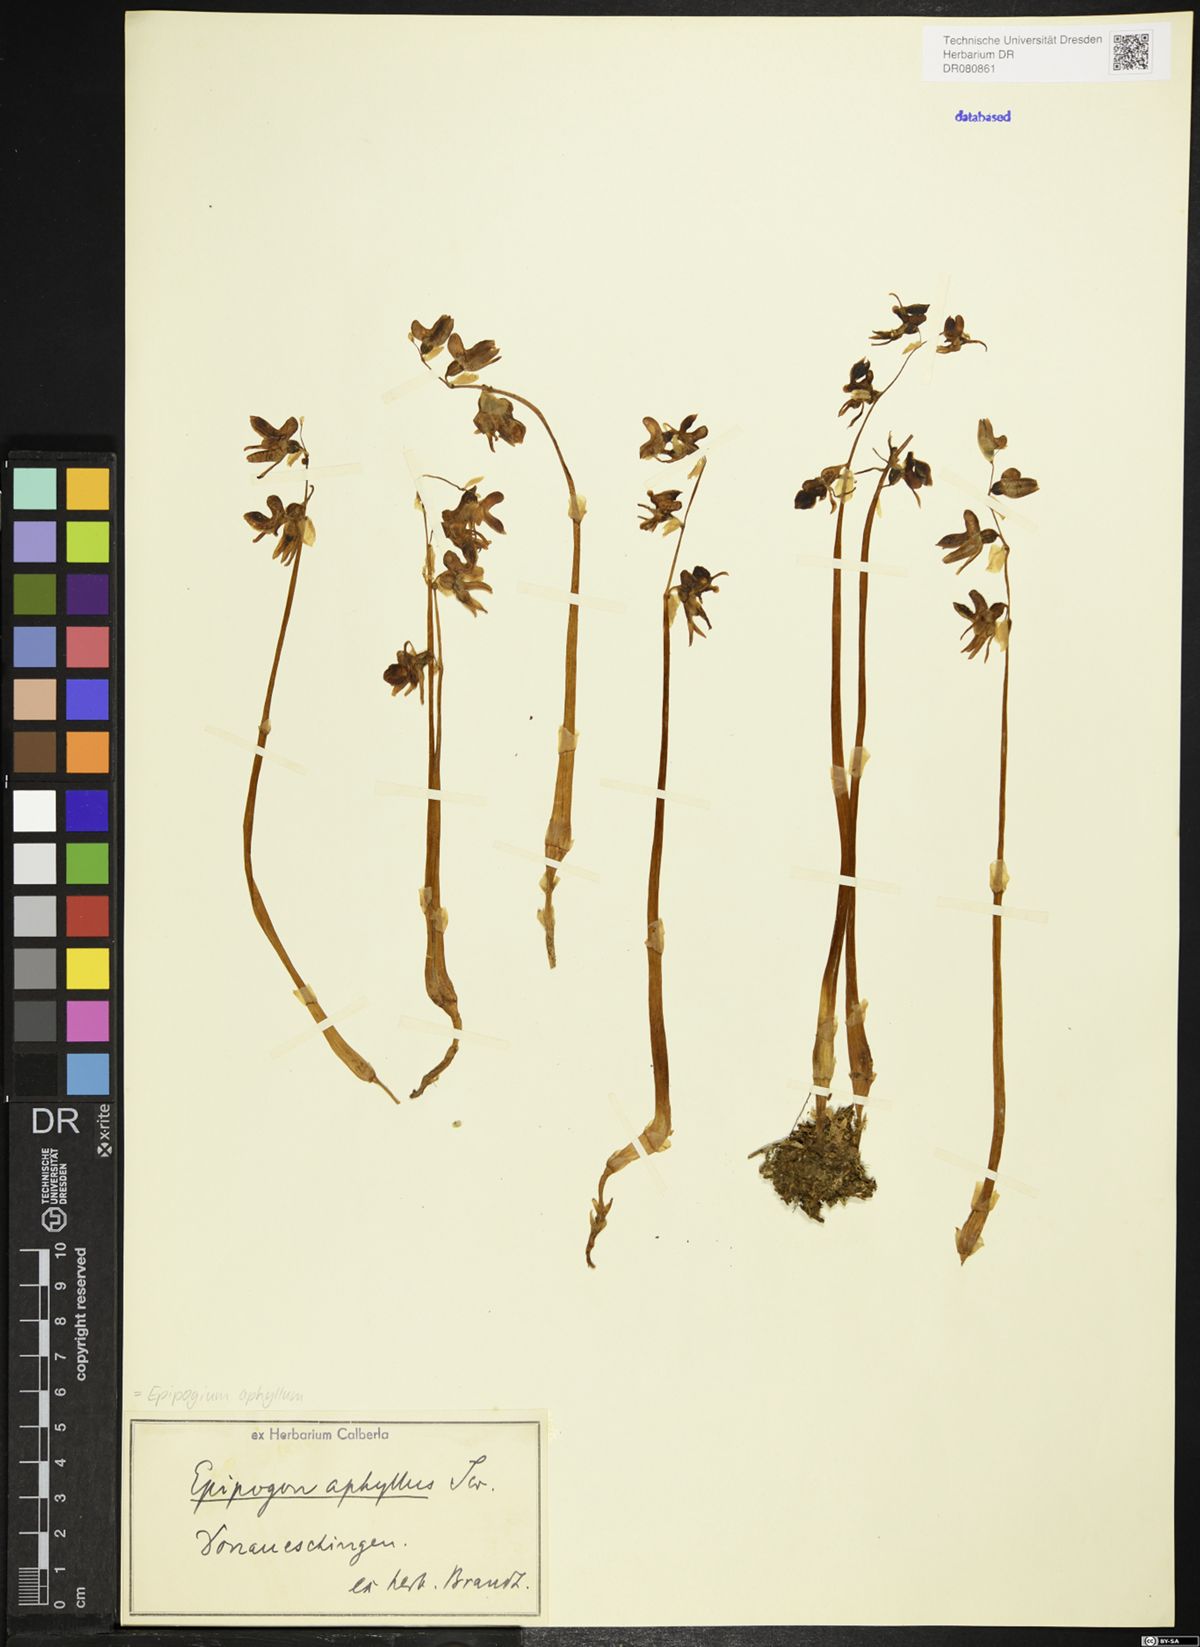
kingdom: Plantae
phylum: Tracheophyta
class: Liliopsida
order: Asparagales
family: Orchidaceae
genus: Epipogium
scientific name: Epipogium aphyllum
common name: Ghost orchid
